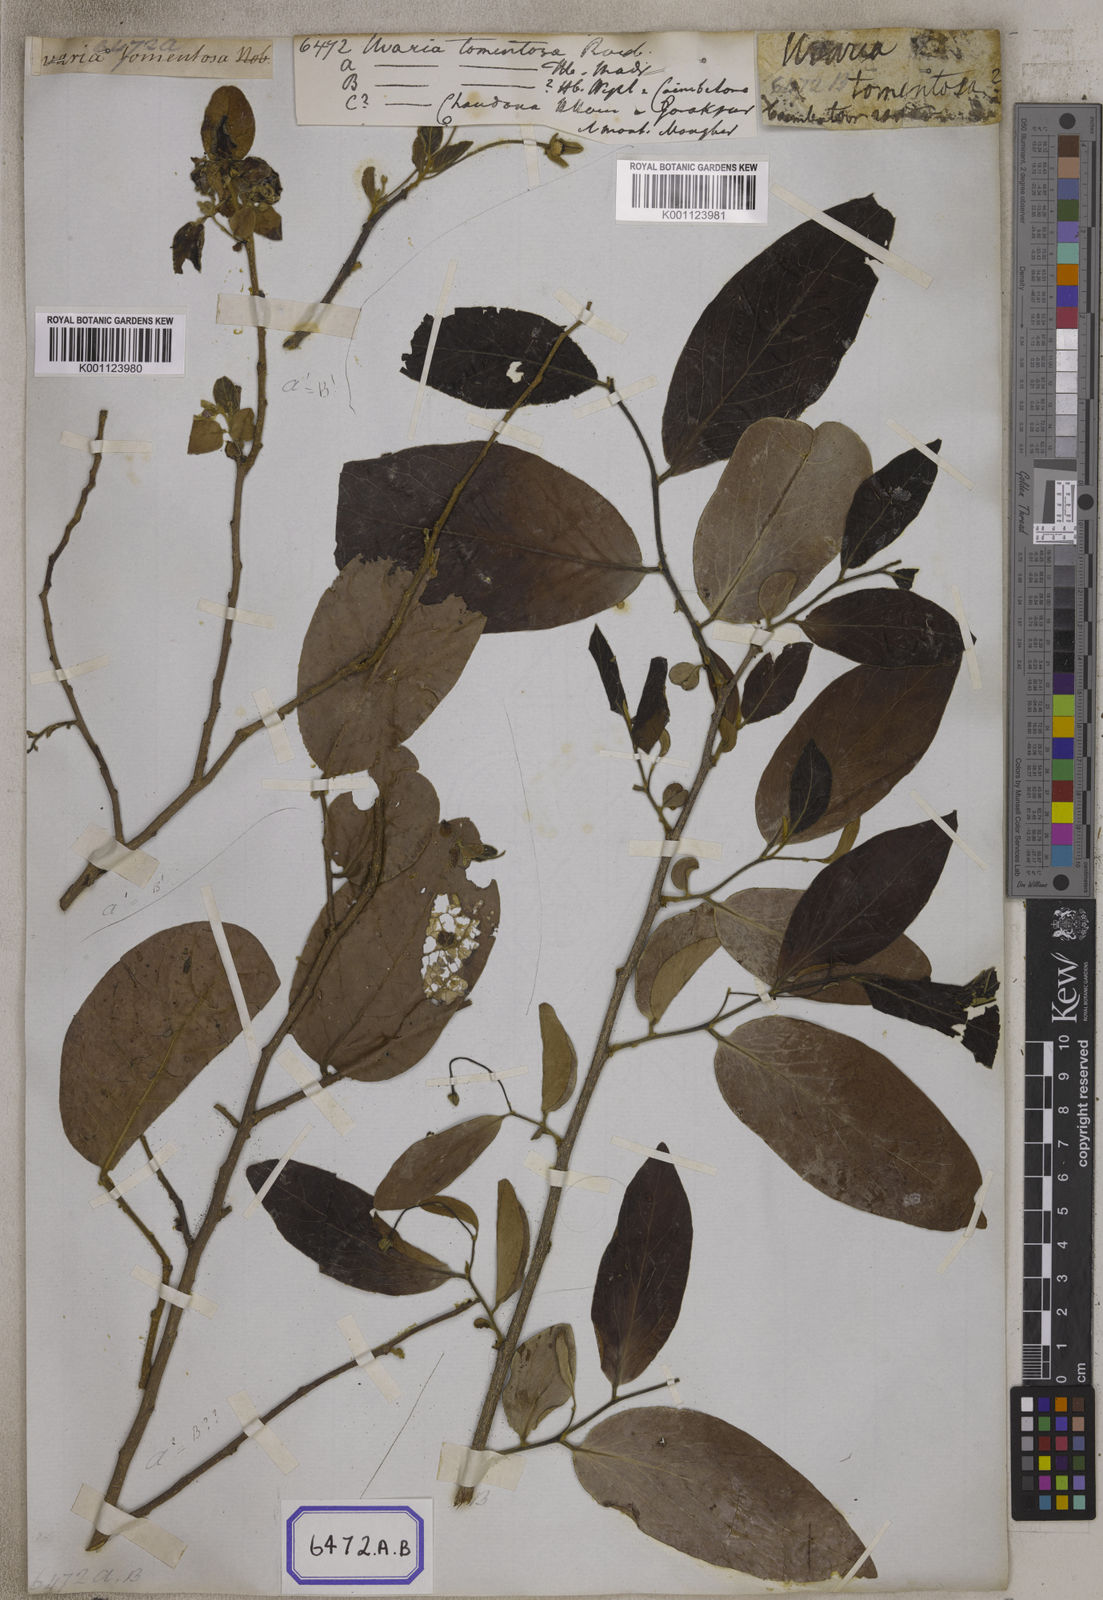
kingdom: Plantae
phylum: Tracheophyta
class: Magnoliopsida
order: Magnoliales
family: Annonaceae
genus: Fissistigma
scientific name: Fissistigma lanuginosa
